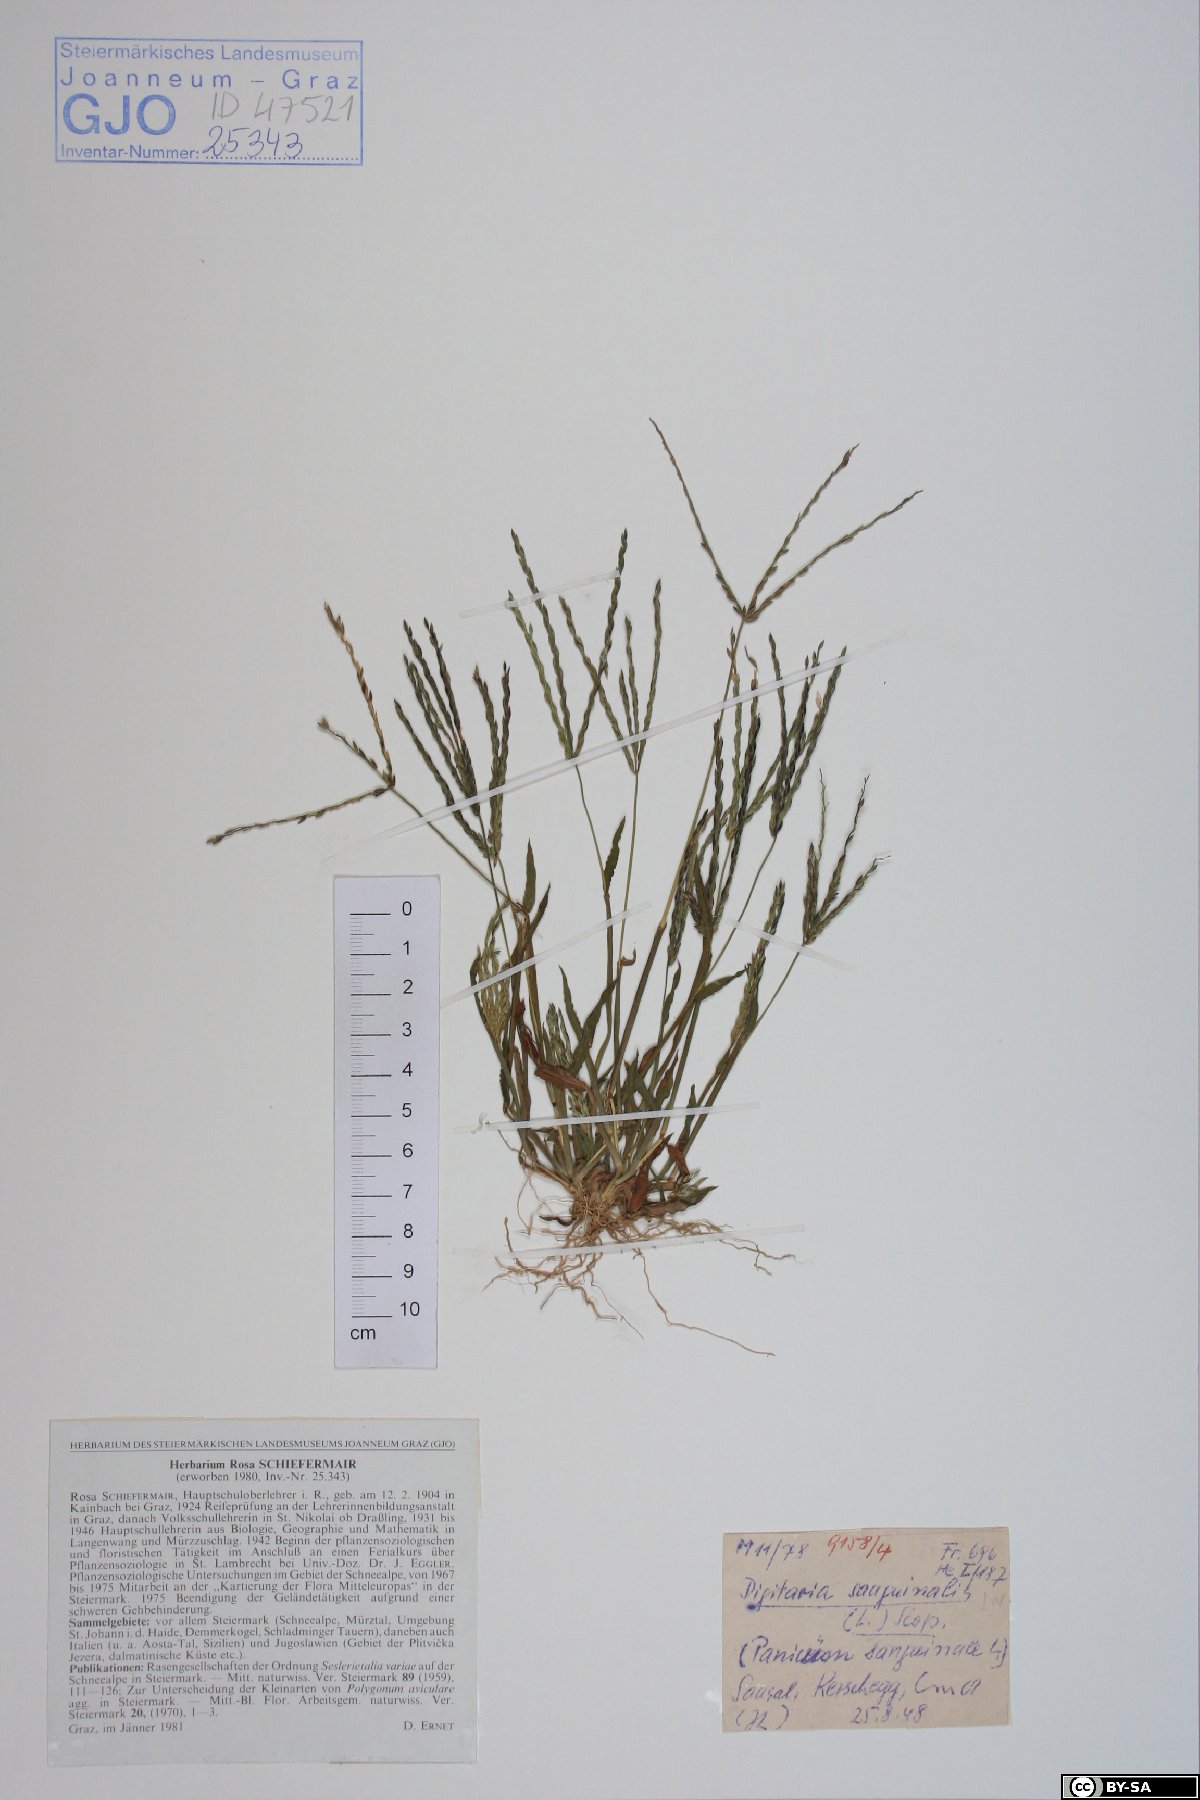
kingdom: Plantae
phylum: Tracheophyta
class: Liliopsida
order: Poales
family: Poaceae
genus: Digitaria
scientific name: Digitaria sanguinalis
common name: Hairy crabgrass
